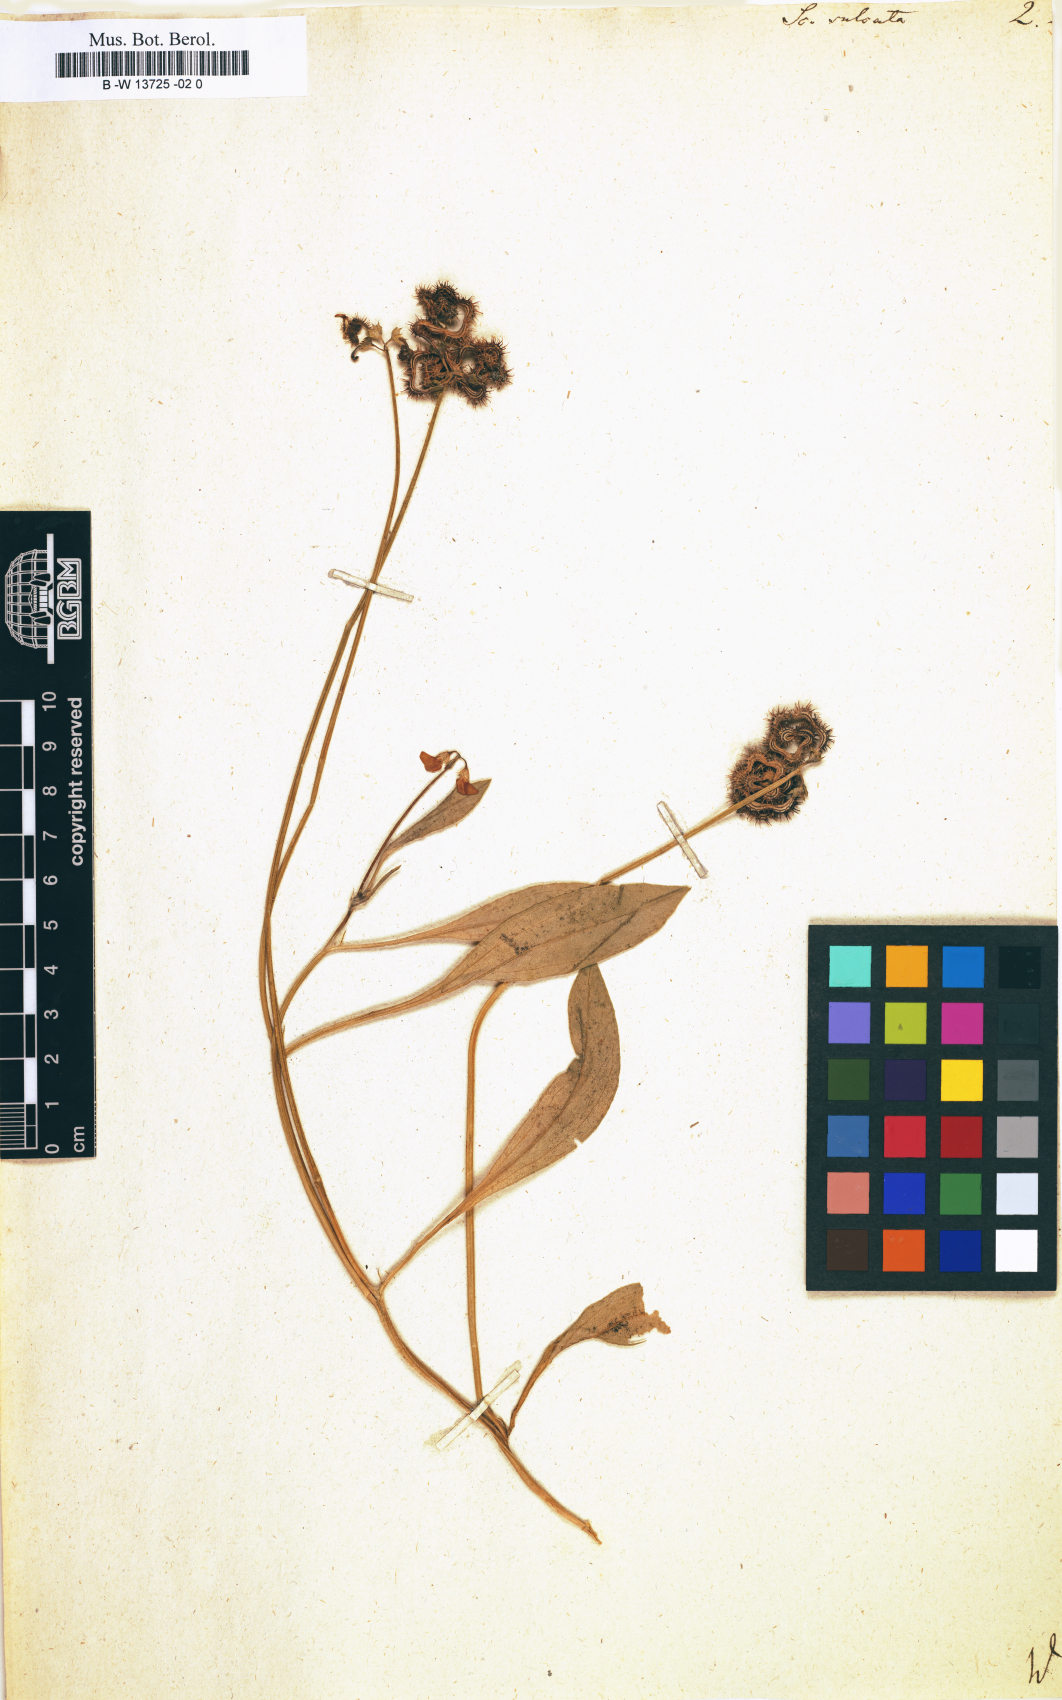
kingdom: Plantae
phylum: Tracheophyta
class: Magnoliopsida
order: Fabales
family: Fabaceae
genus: Scorpiurus
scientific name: Scorpiurus muricatus
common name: Caterpillar-plant
